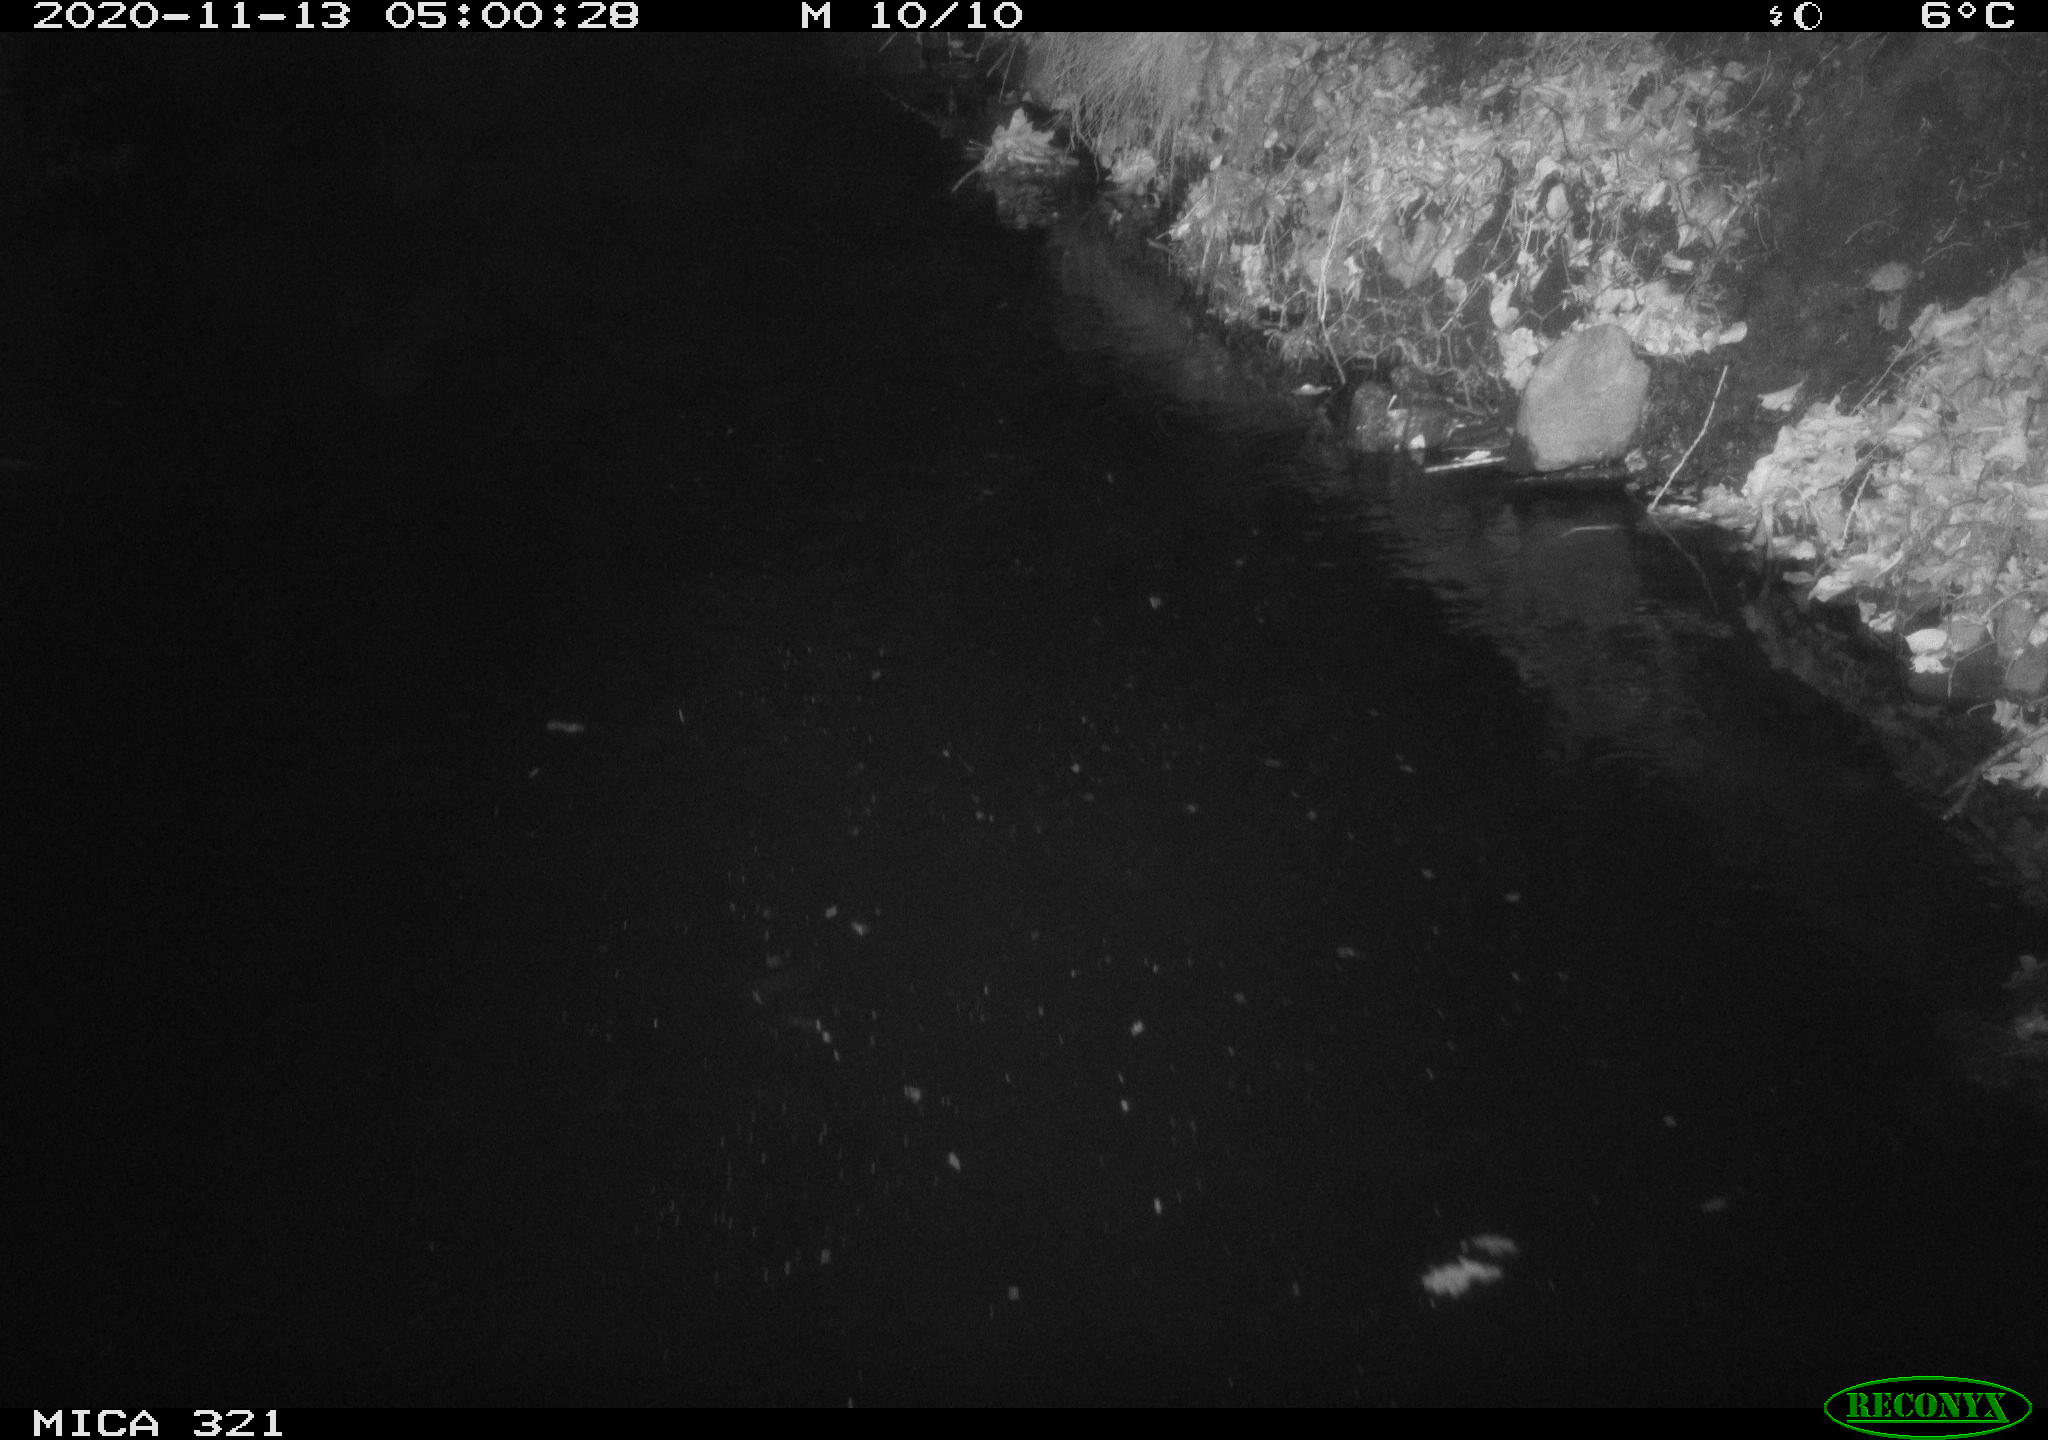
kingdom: Animalia
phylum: Chordata
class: Mammalia
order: Rodentia
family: Muridae
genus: Rattus
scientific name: Rattus norvegicus
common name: Brown rat
